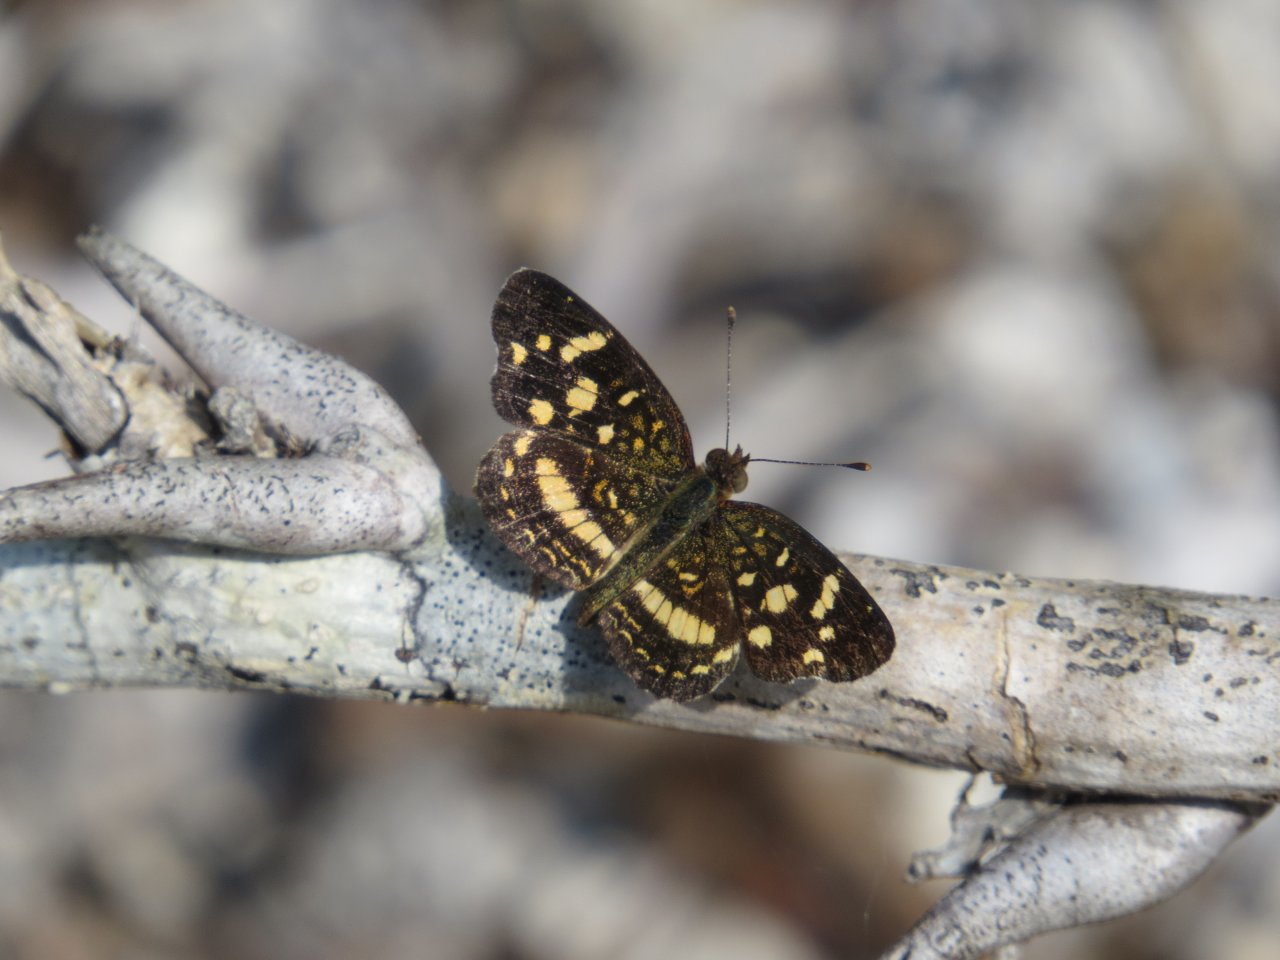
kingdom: Animalia
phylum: Arthropoda
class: Insecta
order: Lepidoptera
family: Nymphalidae
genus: Anthanassa
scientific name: Anthanassa tulcis
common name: Pale-banded Crescent
